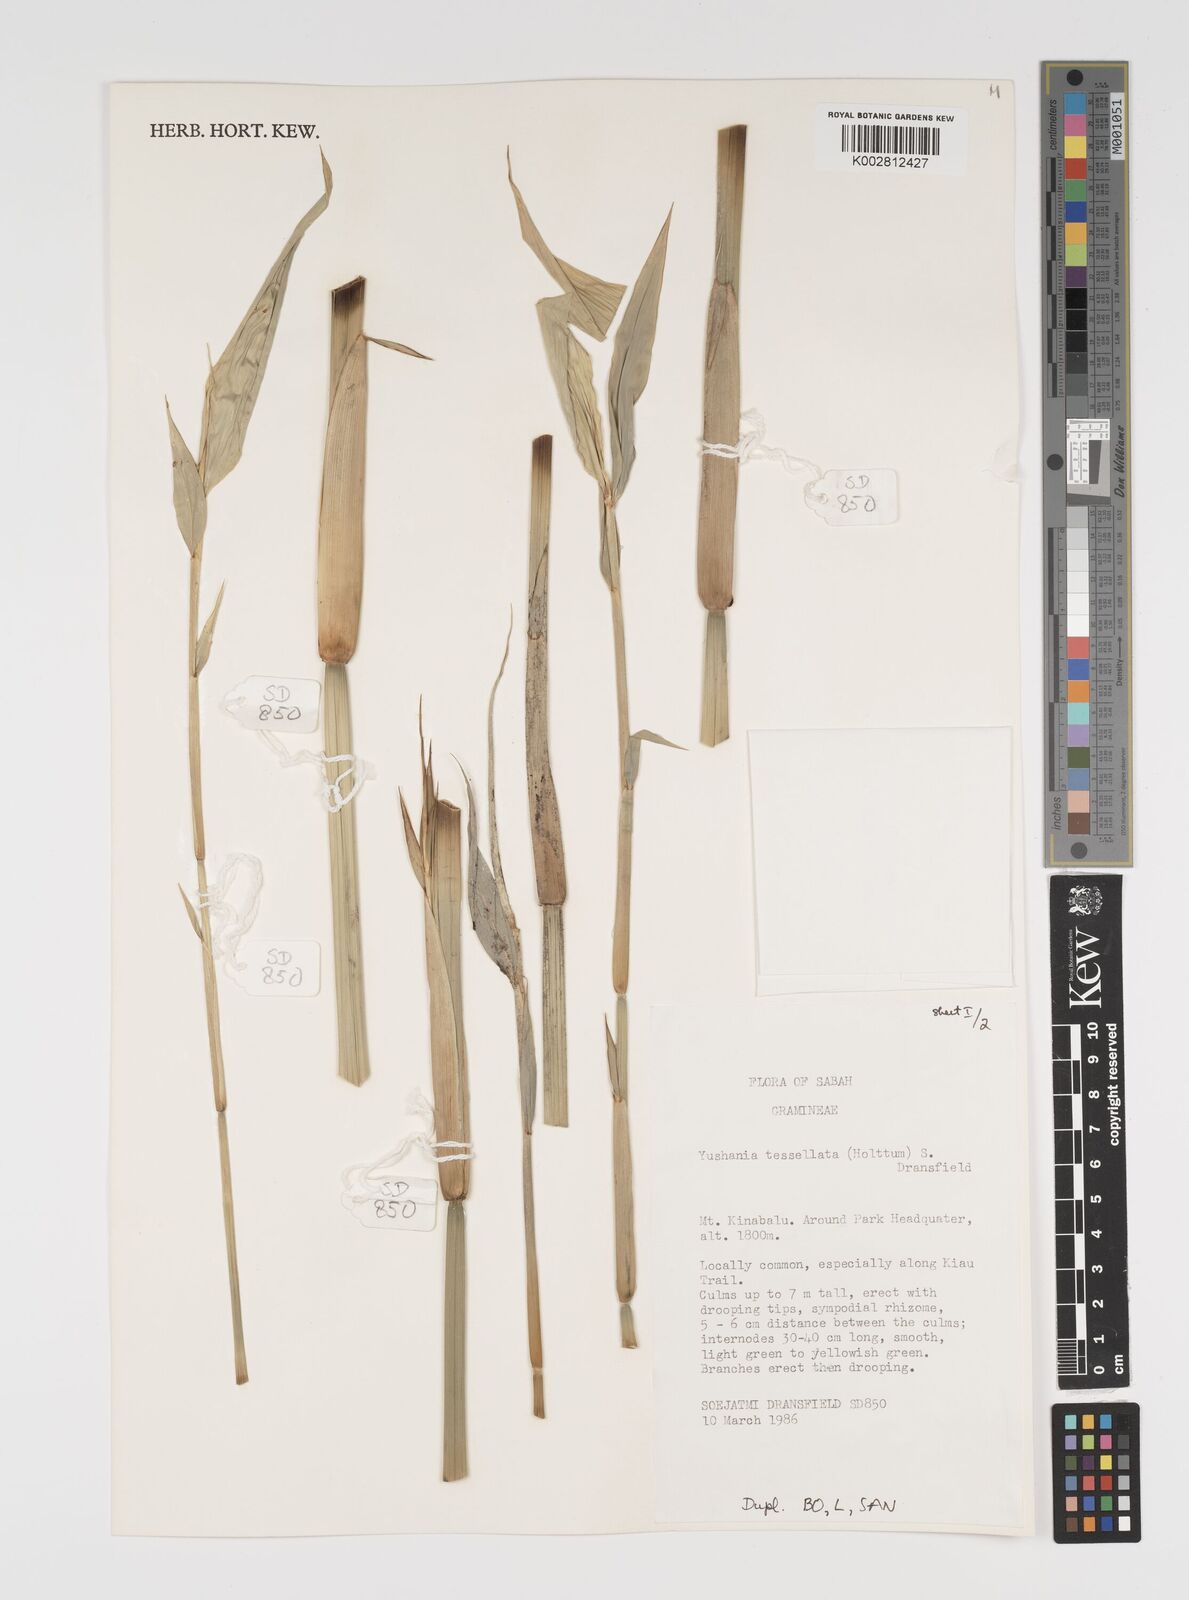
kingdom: Plantae
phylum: Tracheophyta
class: Liliopsida
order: Poales
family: Poaceae
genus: Yushania
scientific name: Yushania
